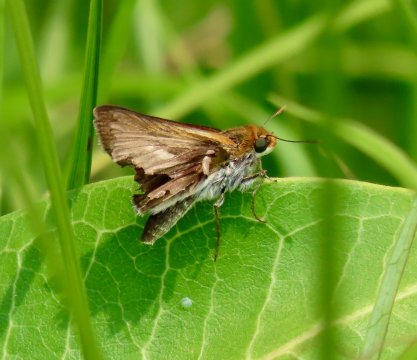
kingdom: Animalia
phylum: Arthropoda
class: Insecta
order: Lepidoptera
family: Hesperiidae
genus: Euphyes
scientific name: Euphyes bimacula
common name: Two-spotted Skipper
